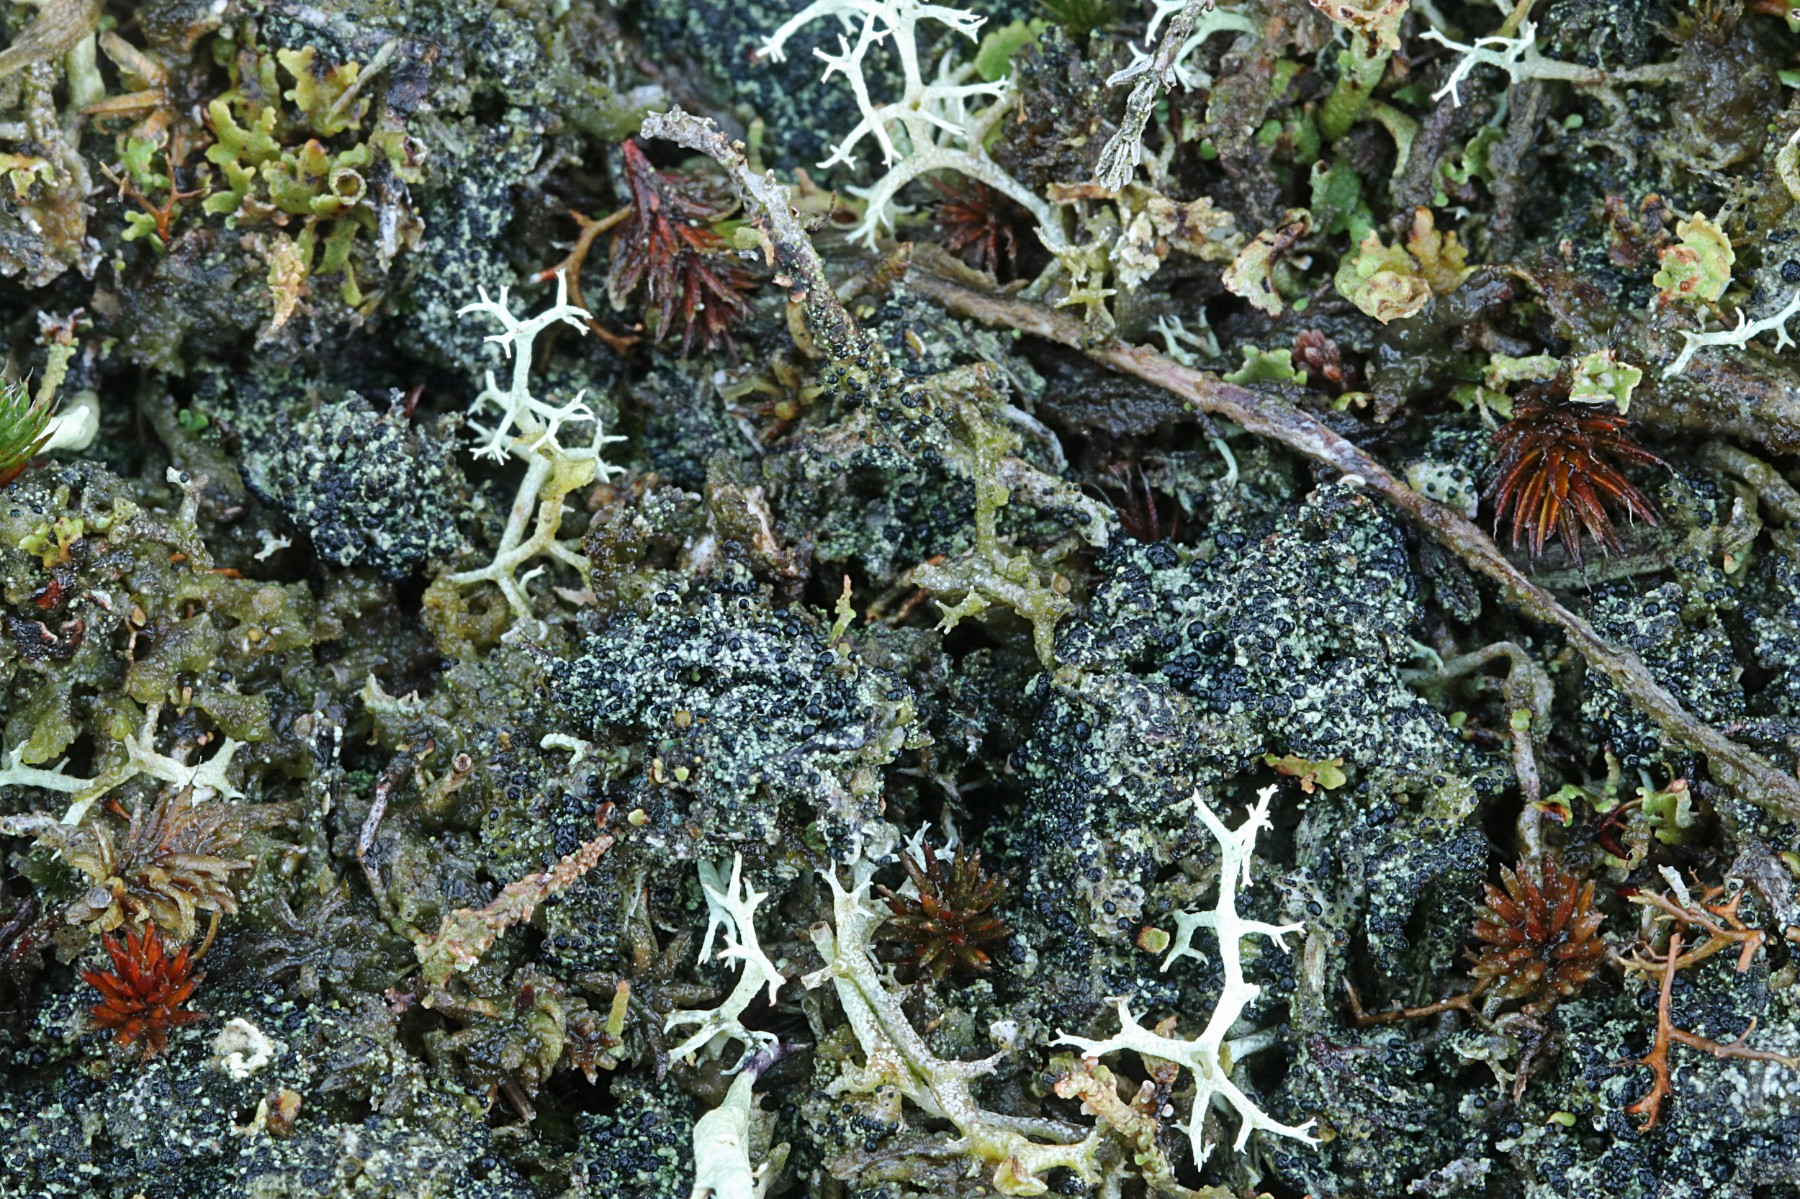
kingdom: Fungi
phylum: Ascomycota
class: Lecanoromycetes
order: Lecanorales
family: Byssolomataceae
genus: Micarea
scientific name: Micarea lignaria
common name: tørve-knaplav
